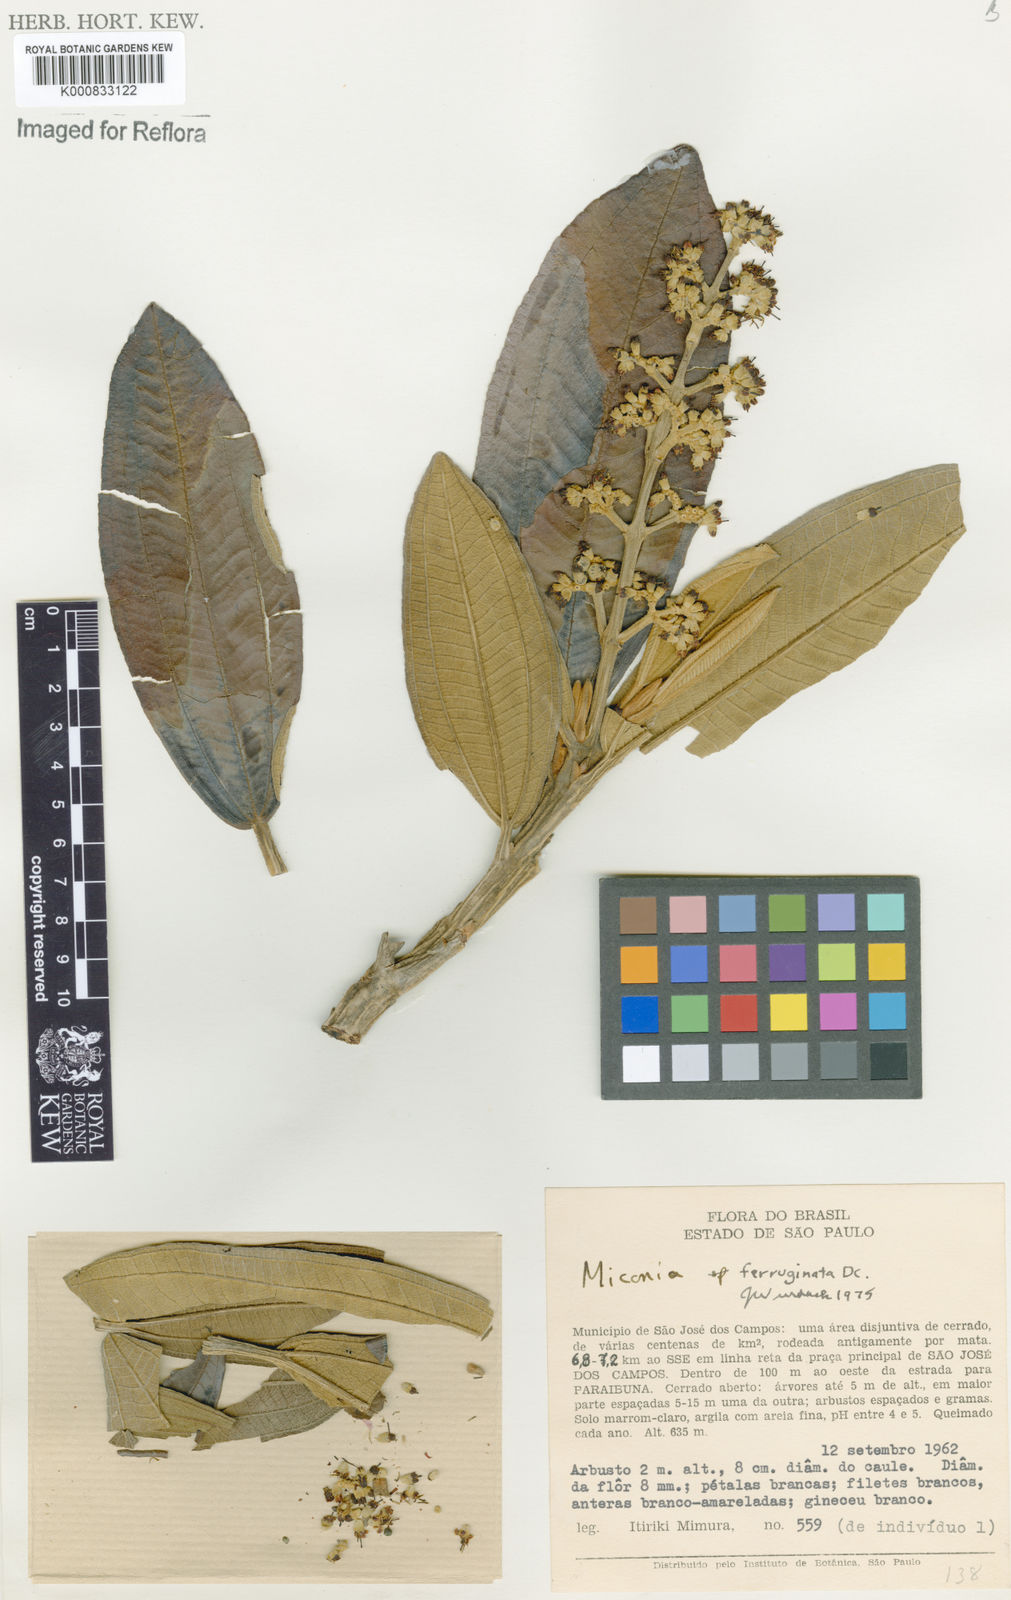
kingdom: Plantae
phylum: Tracheophyta
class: Magnoliopsida
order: Myrtales
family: Melastomataceae
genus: Miconia
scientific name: Miconia ferruginata
